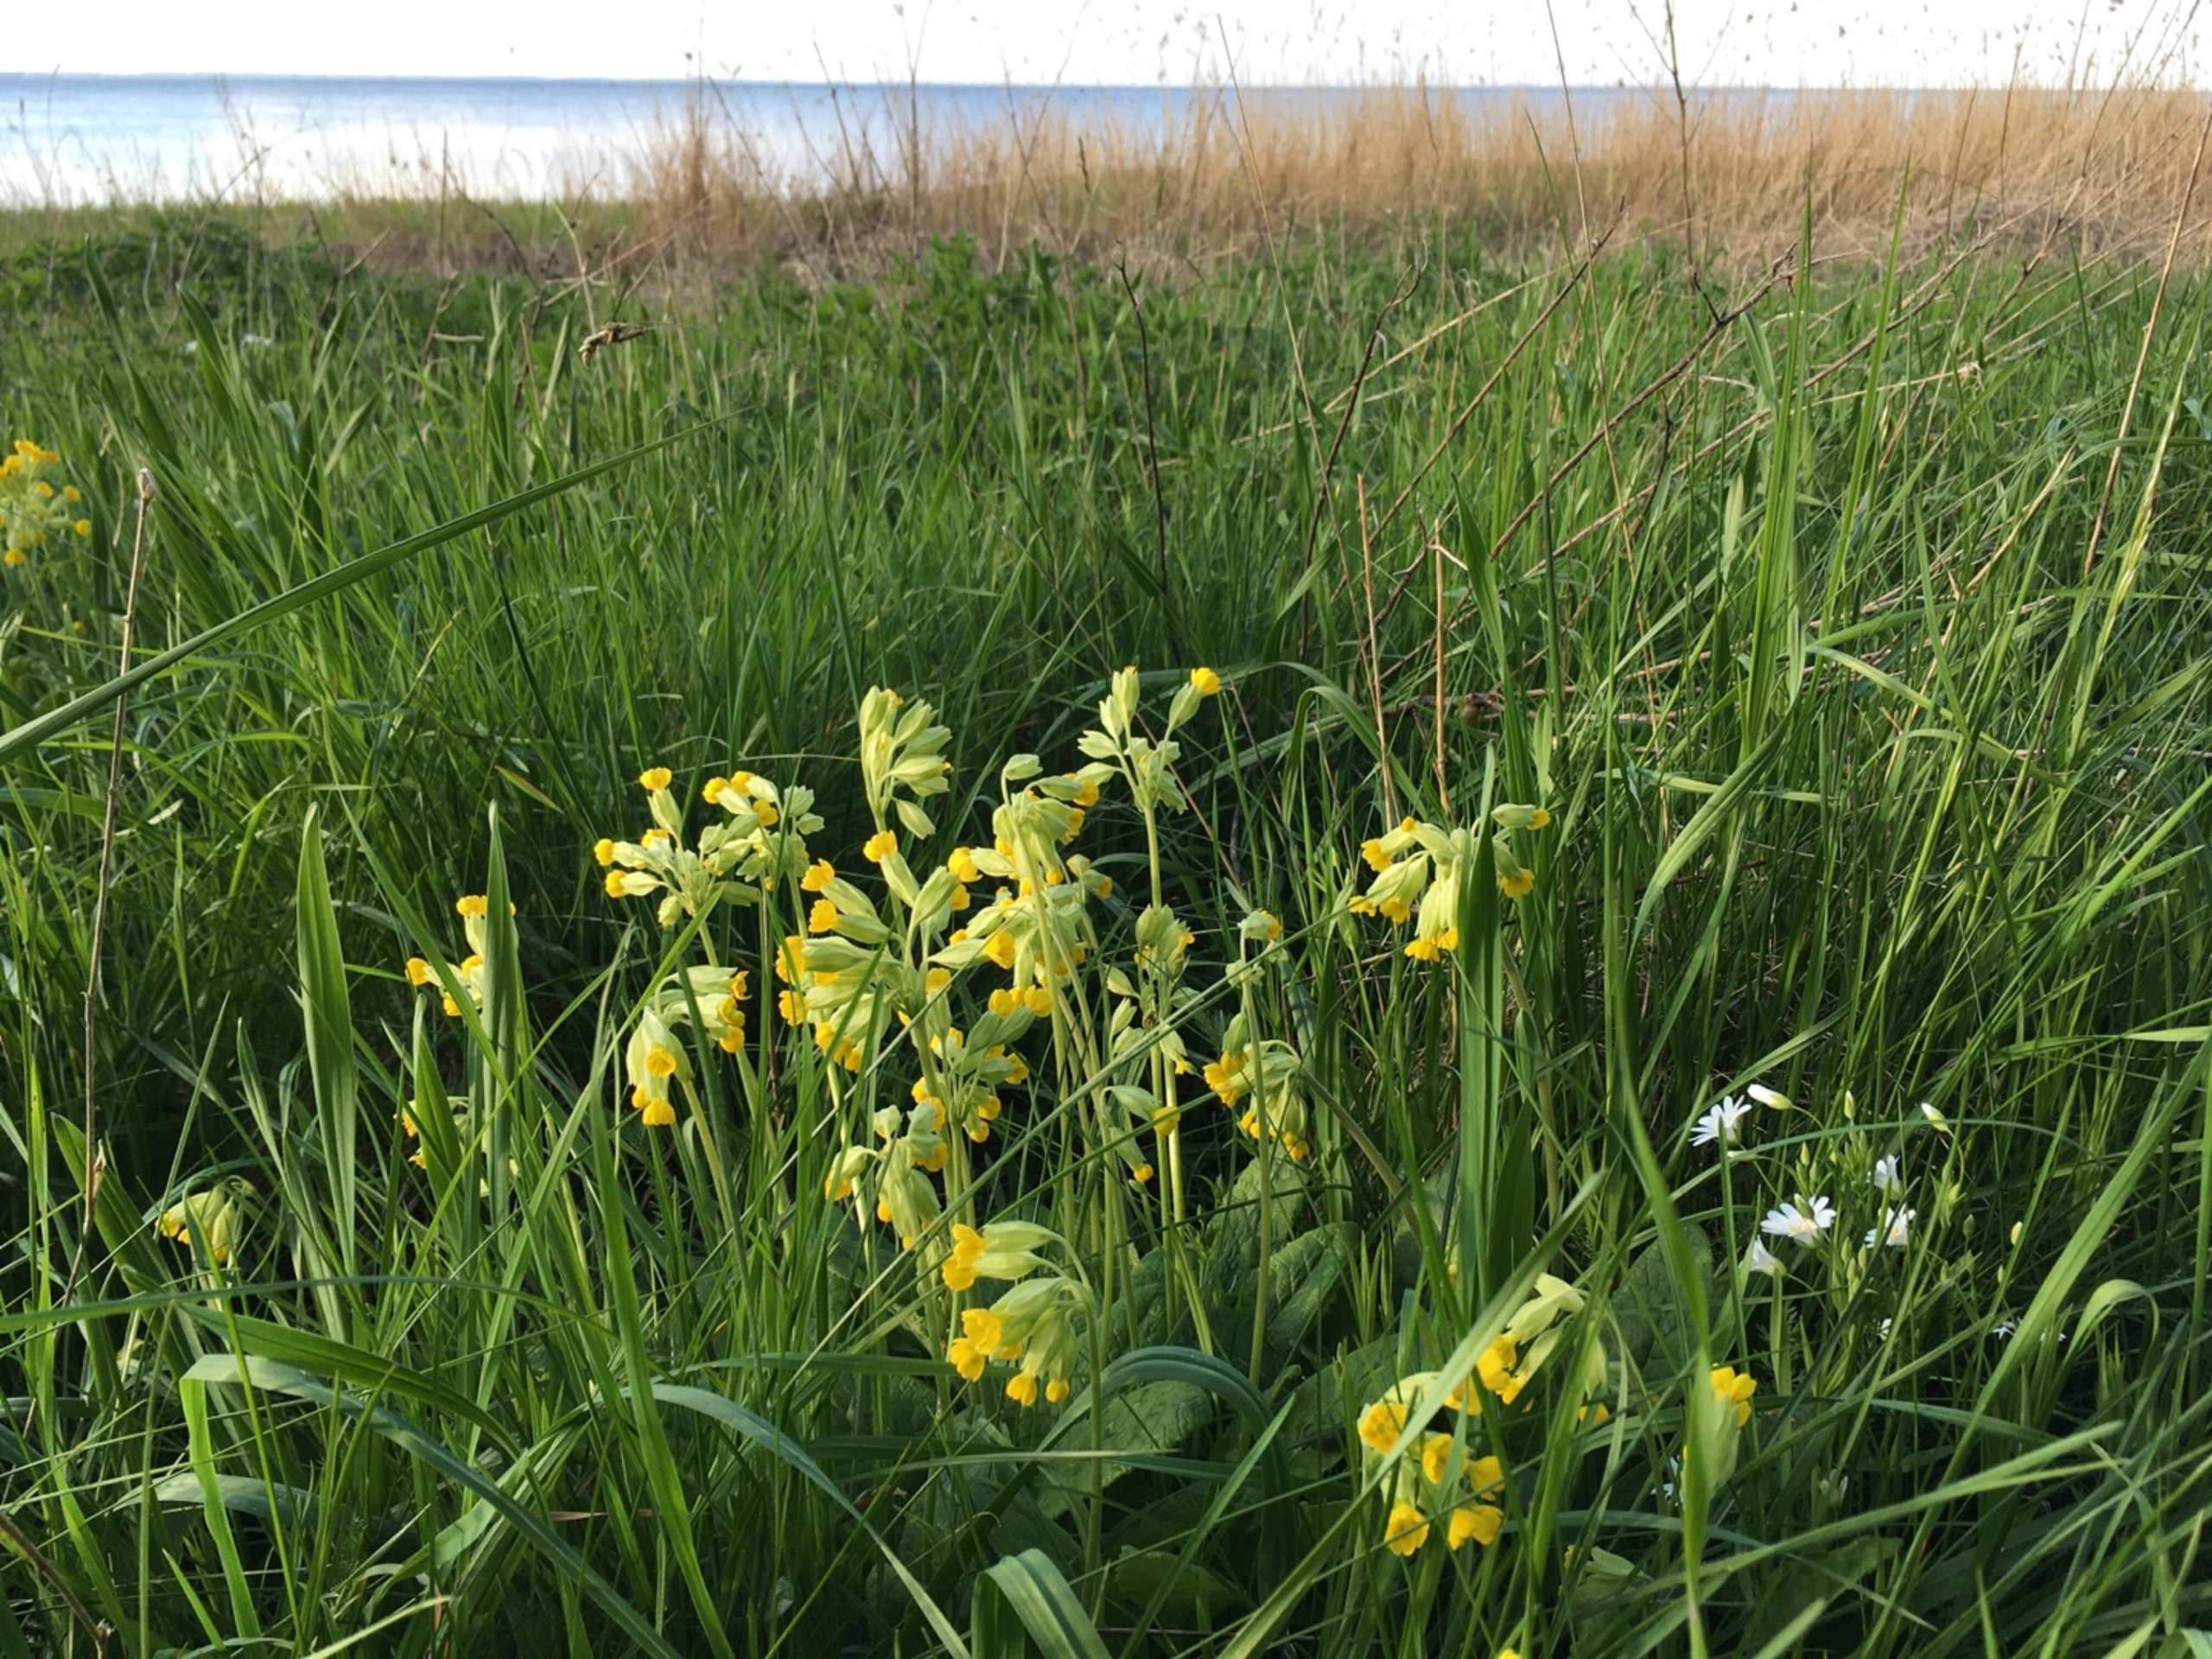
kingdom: Plantae
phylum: Tracheophyta
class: Magnoliopsida
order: Ericales
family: Primulaceae
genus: Primula
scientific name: Primula veris
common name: Hulkravet kodriver
